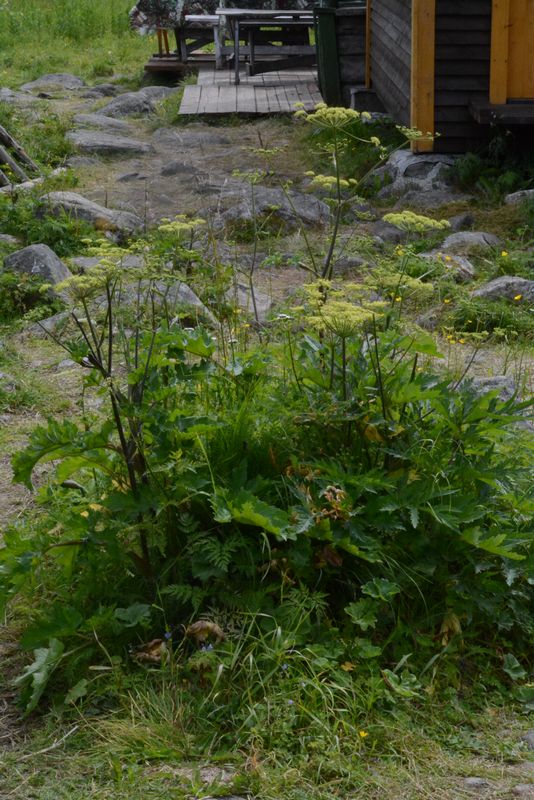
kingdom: Plantae
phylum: Tracheophyta
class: Magnoliopsida
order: Apiales
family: Apiaceae
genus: Heracleum
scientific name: Heracleum sphondylium
